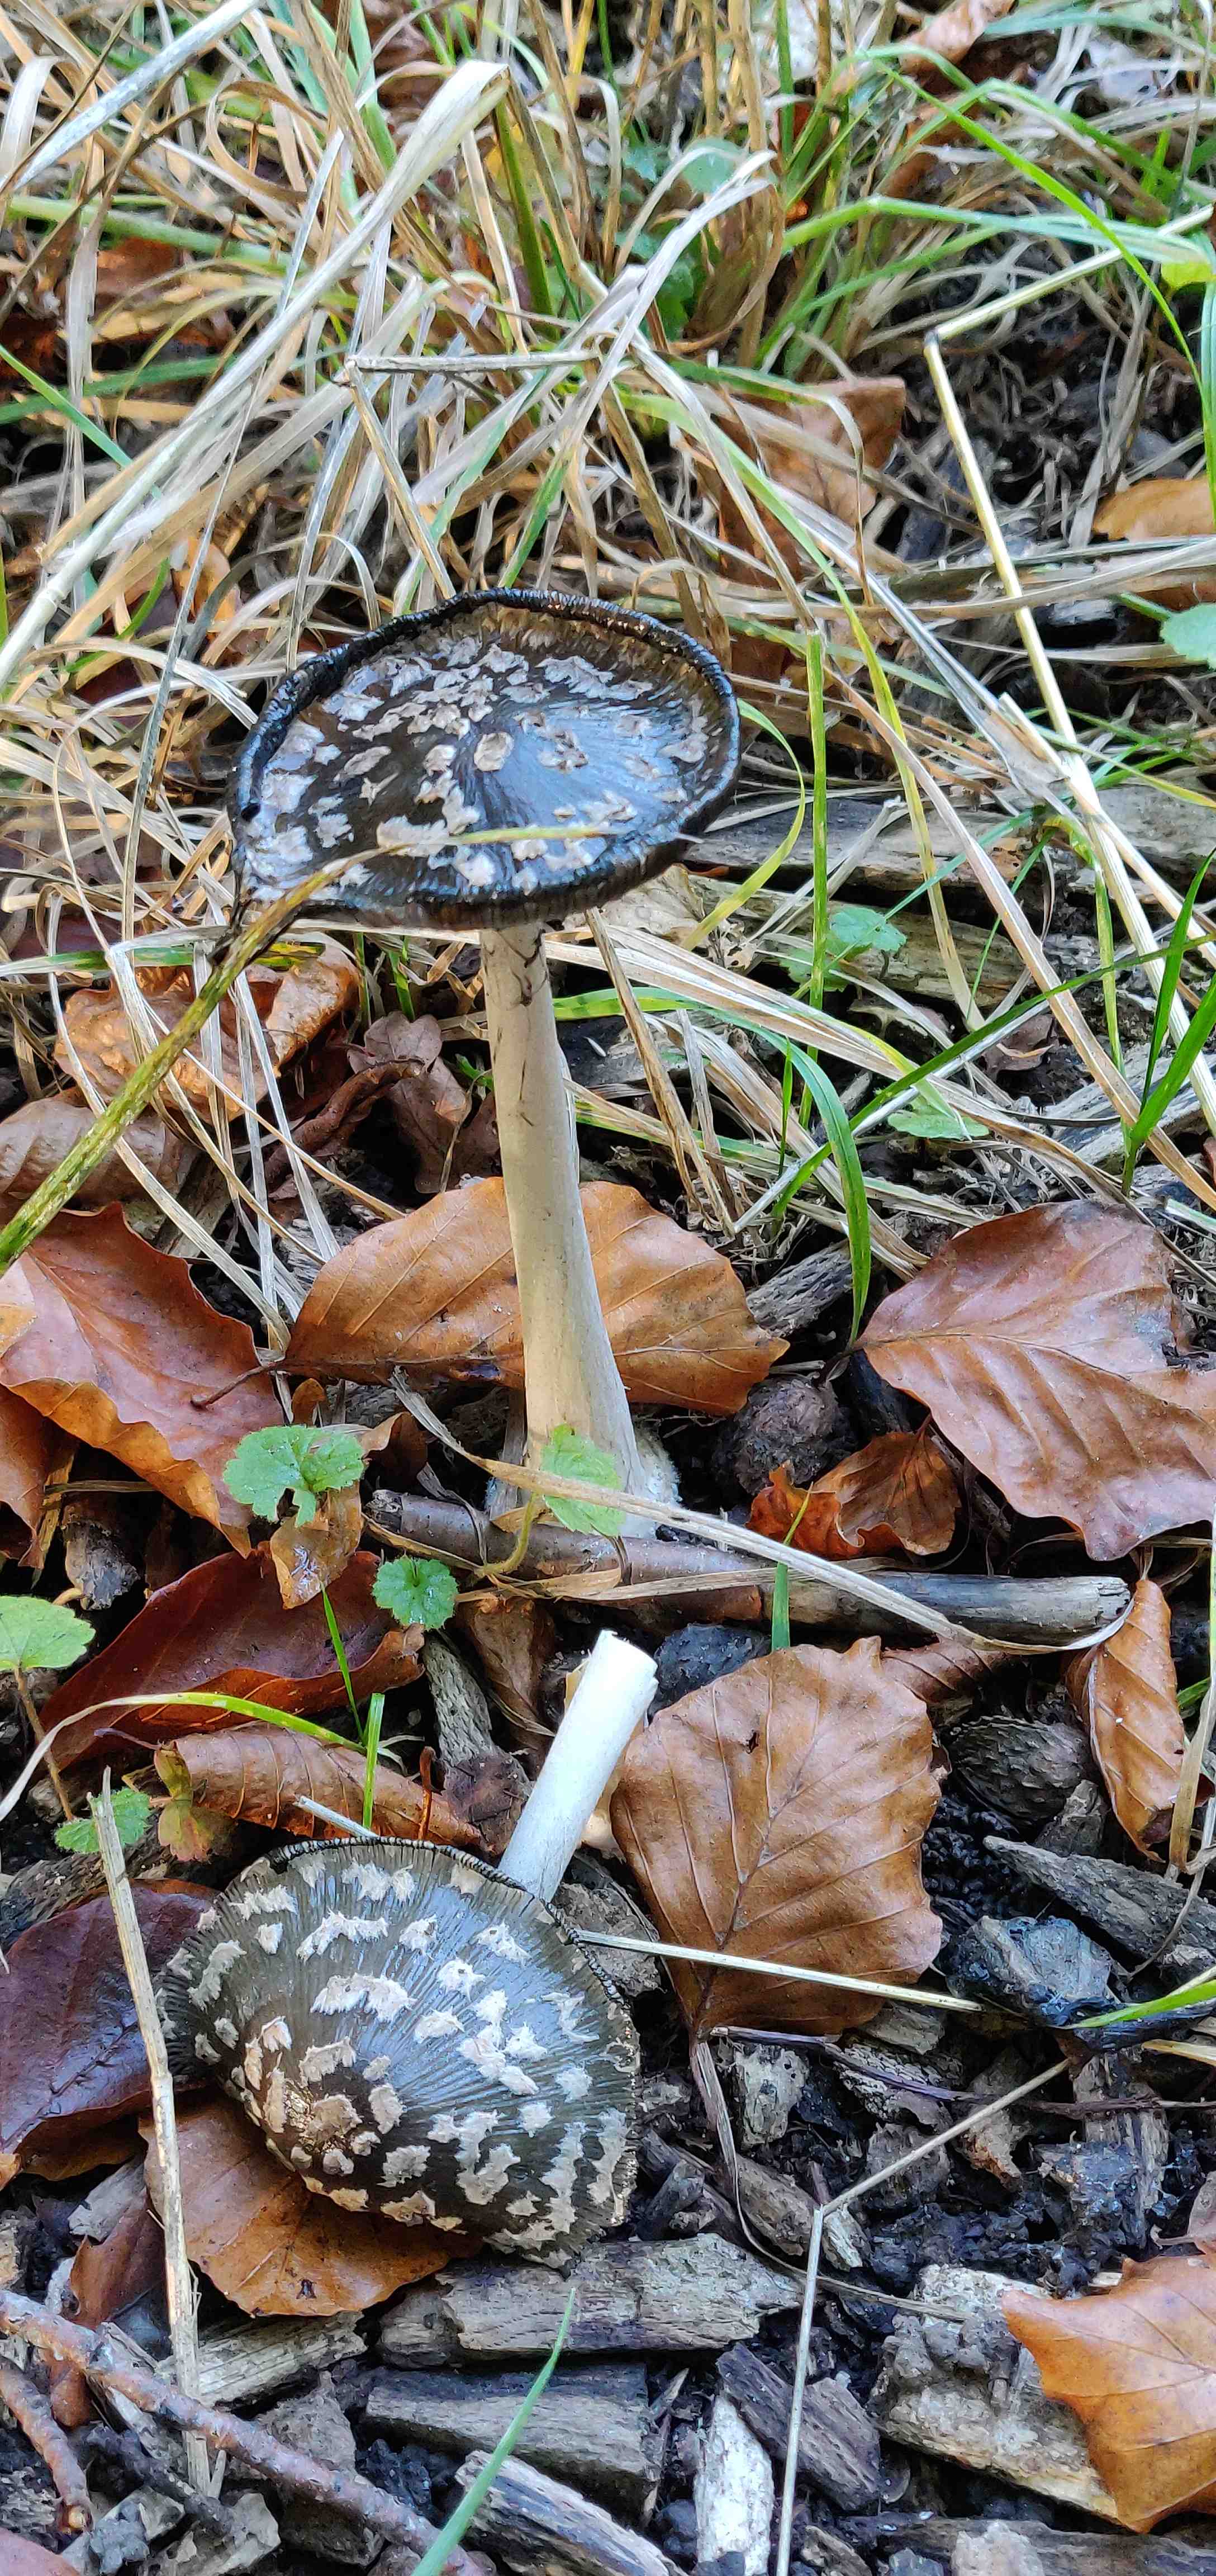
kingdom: Fungi
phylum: Basidiomycota
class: Agaricomycetes
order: Agaricales
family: Psathyrellaceae
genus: Coprinopsis
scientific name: Coprinopsis picacea
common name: skade-blækhat
